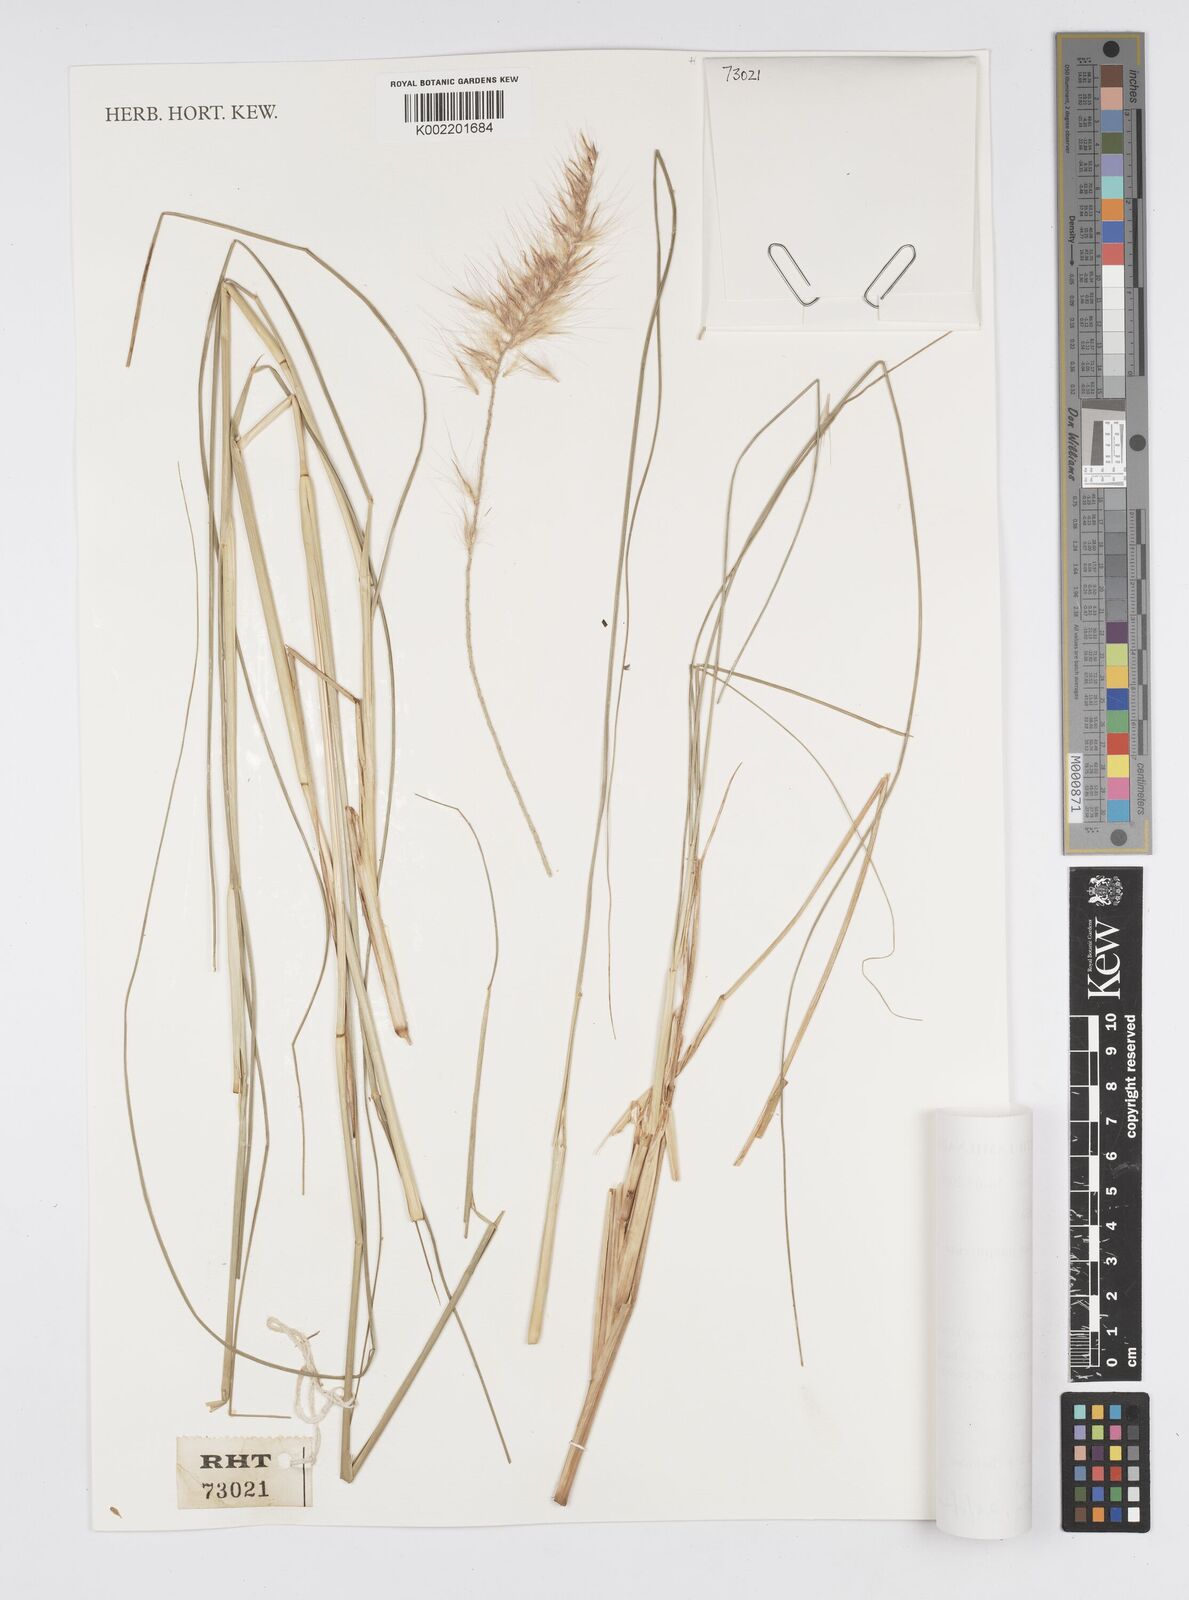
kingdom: Plantae
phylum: Tracheophyta
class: Liliopsida
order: Poales
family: Poaceae
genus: Cenchrus
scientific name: Cenchrus purpureus
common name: Elephant grass
